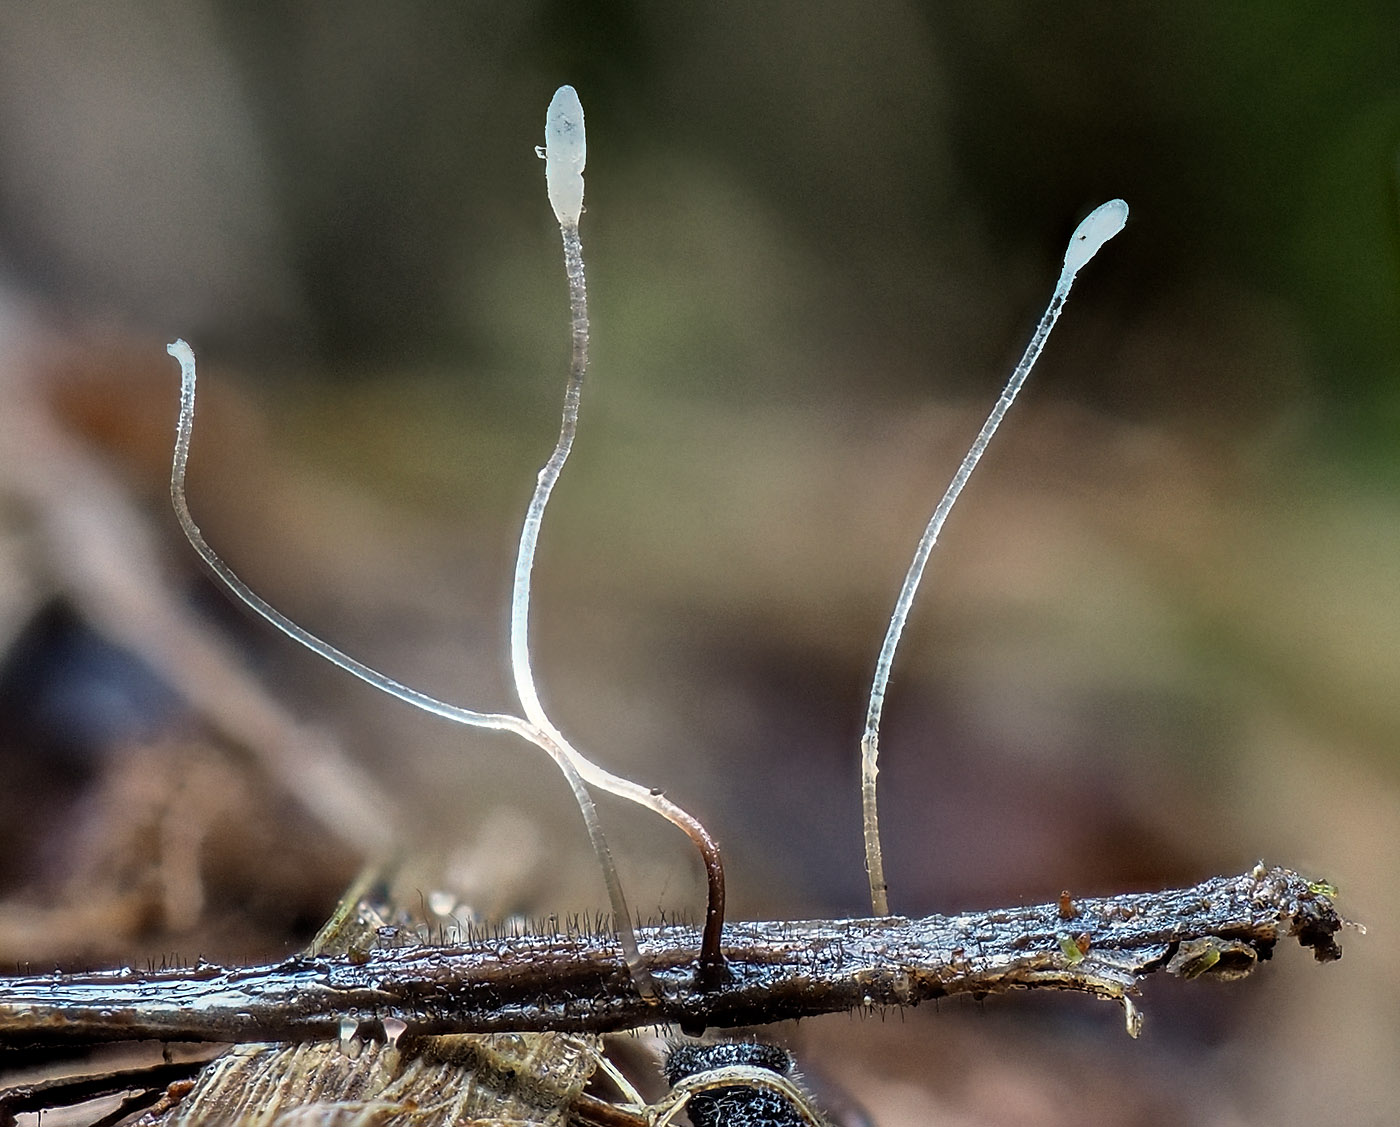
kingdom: Fungi
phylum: Basidiomycota
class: Agaricomycetes
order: Agaricales
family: Typhulaceae
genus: Typhula
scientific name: Typhula erythropus
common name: glatstokket trådkølle
